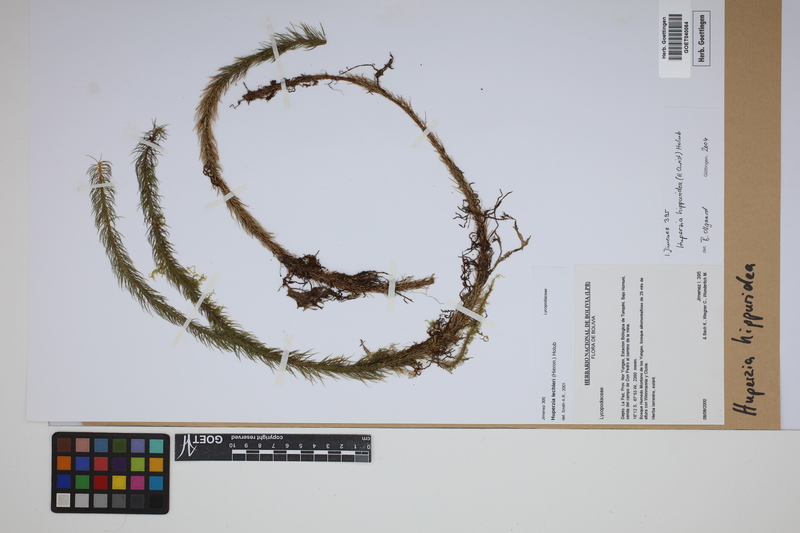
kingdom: Plantae
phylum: Tracheophyta
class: Lycopodiopsida
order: Lycopodiales
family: Lycopodiaceae
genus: Phlegmariurus
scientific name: Phlegmariurus hippurideus
